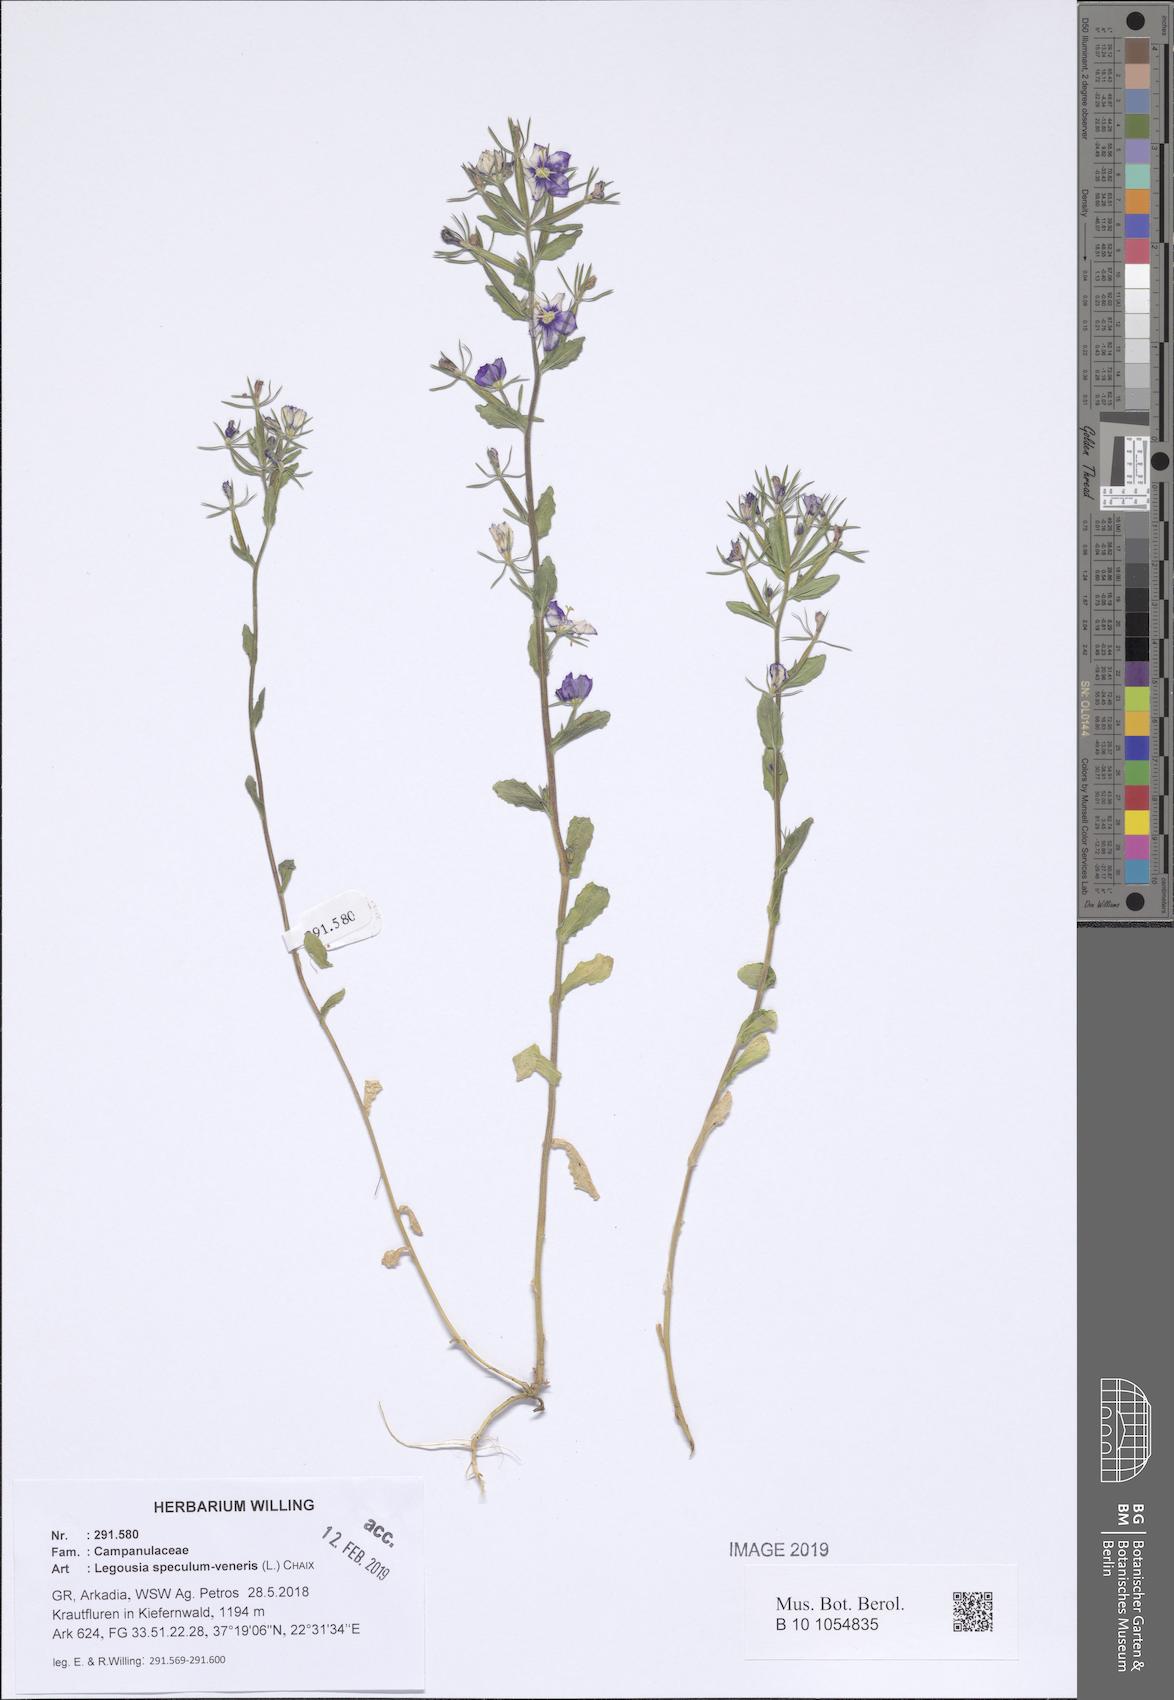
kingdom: Plantae
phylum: Tracheophyta
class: Magnoliopsida
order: Asterales
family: Campanulaceae
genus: Legousia
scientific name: Legousia speculum-veneris
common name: Large venus's-looking-glass
